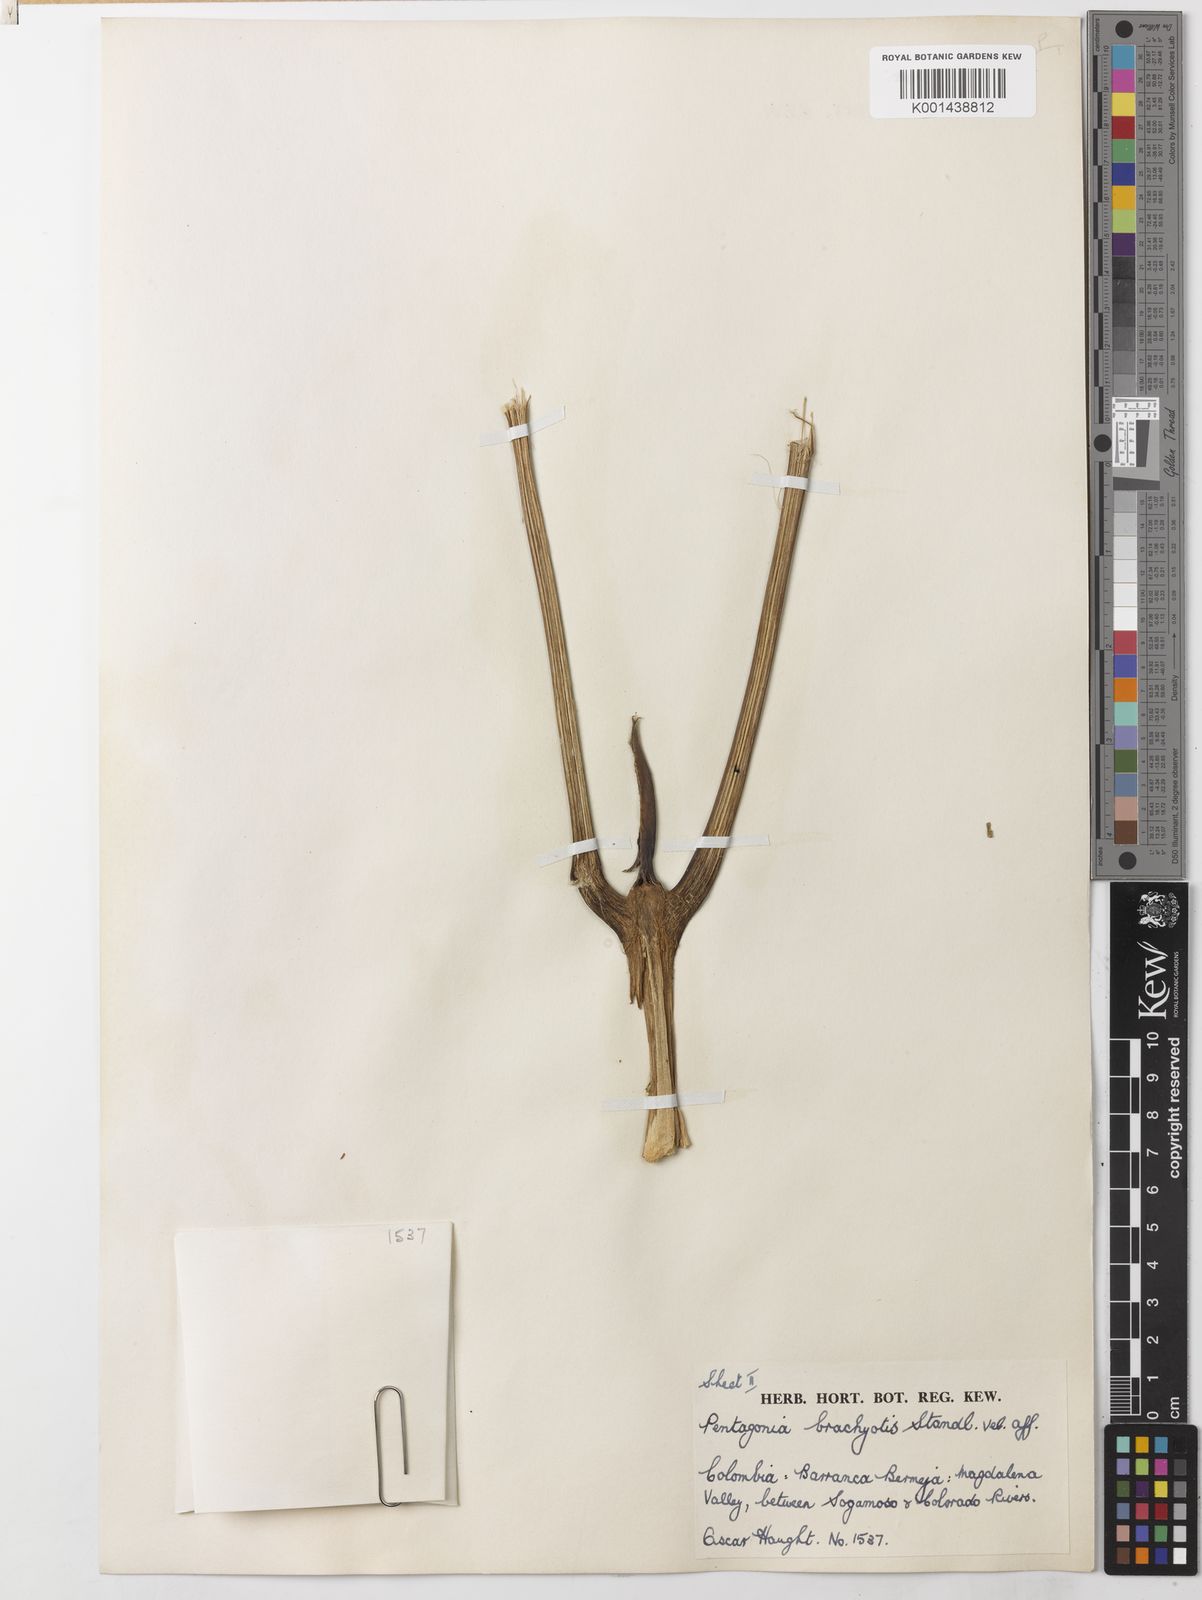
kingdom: Plantae
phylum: Tracheophyta
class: Magnoliopsida
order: Gentianales
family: Rubiaceae
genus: Pentagonia
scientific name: Pentagonia pinnatifida
